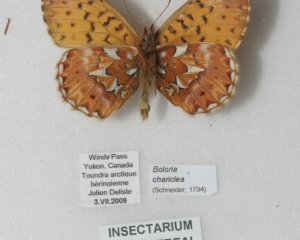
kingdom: Animalia
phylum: Arthropoda
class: Insecta
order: Lepidoptera
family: Nymphalidae
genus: Boloria
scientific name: Boloria chariclea
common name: Arctic Fritillary
